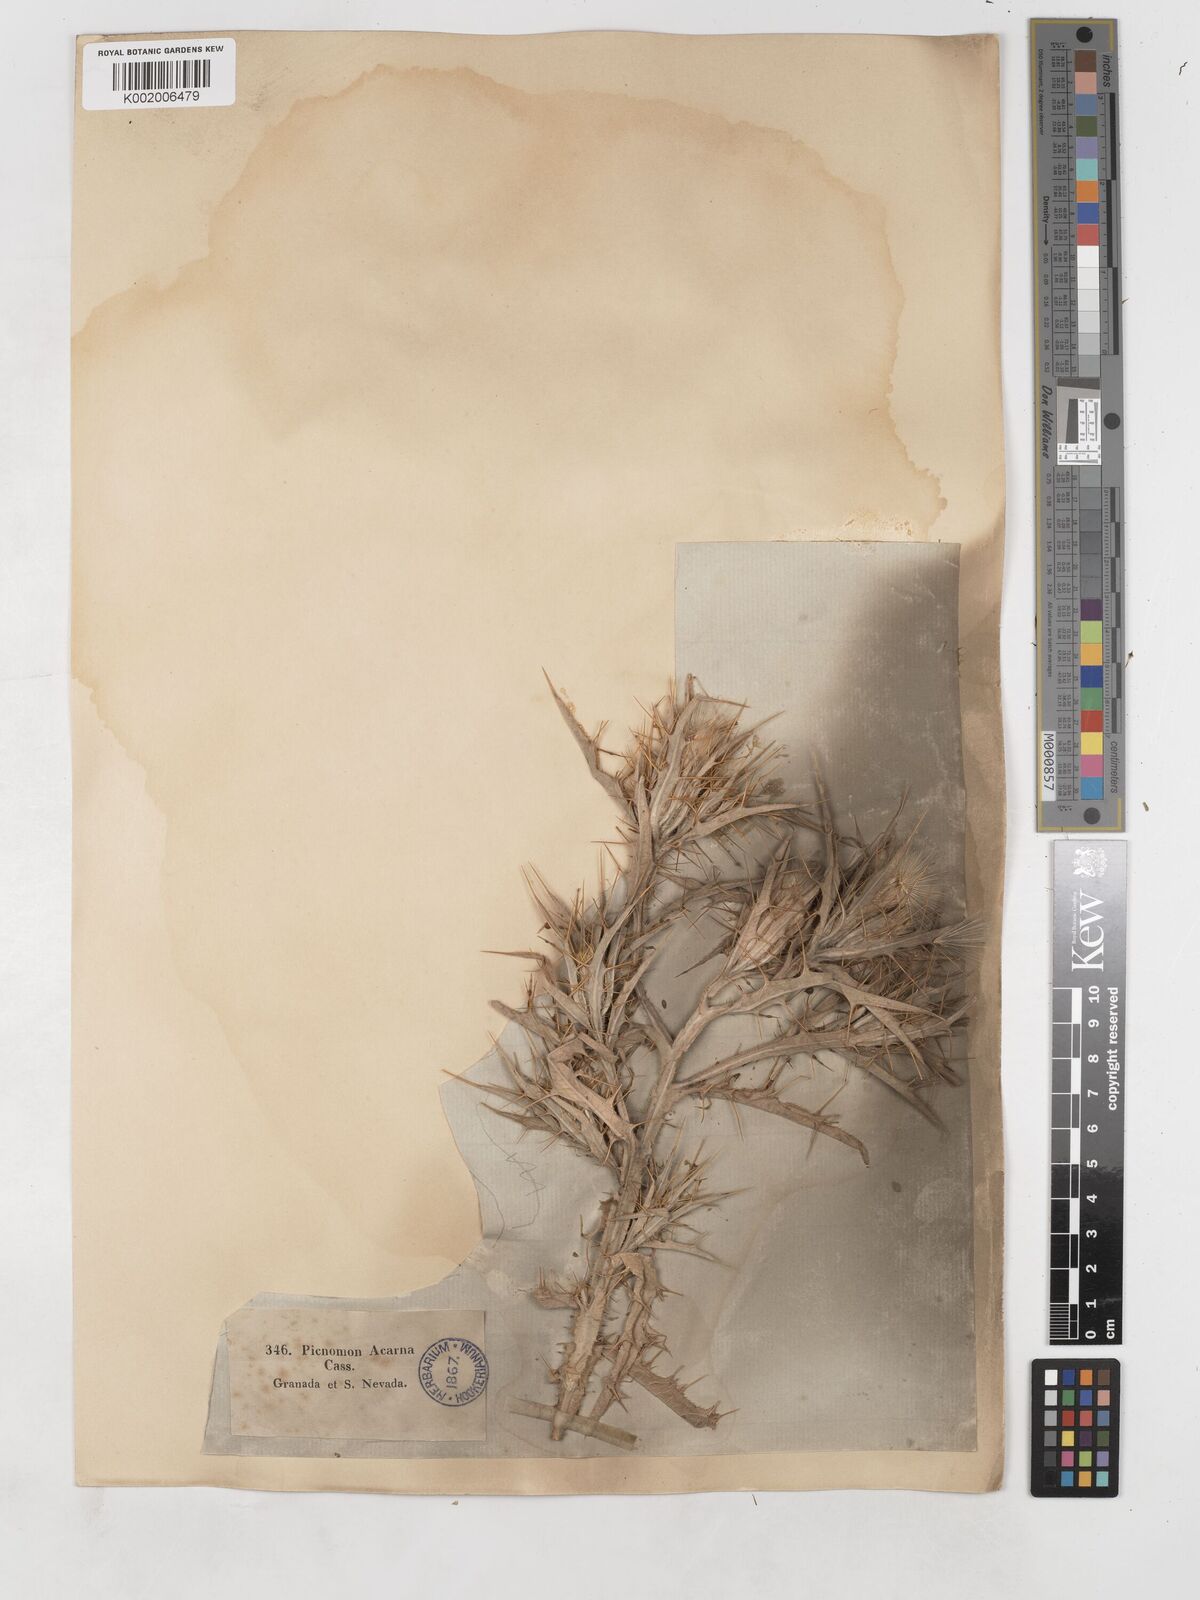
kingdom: Plantae
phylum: Tracheophyta
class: Magnoliopsida
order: Asterales
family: Asteraceae
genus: Picnomon
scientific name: Picnomon acarna
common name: Soldier thistle
